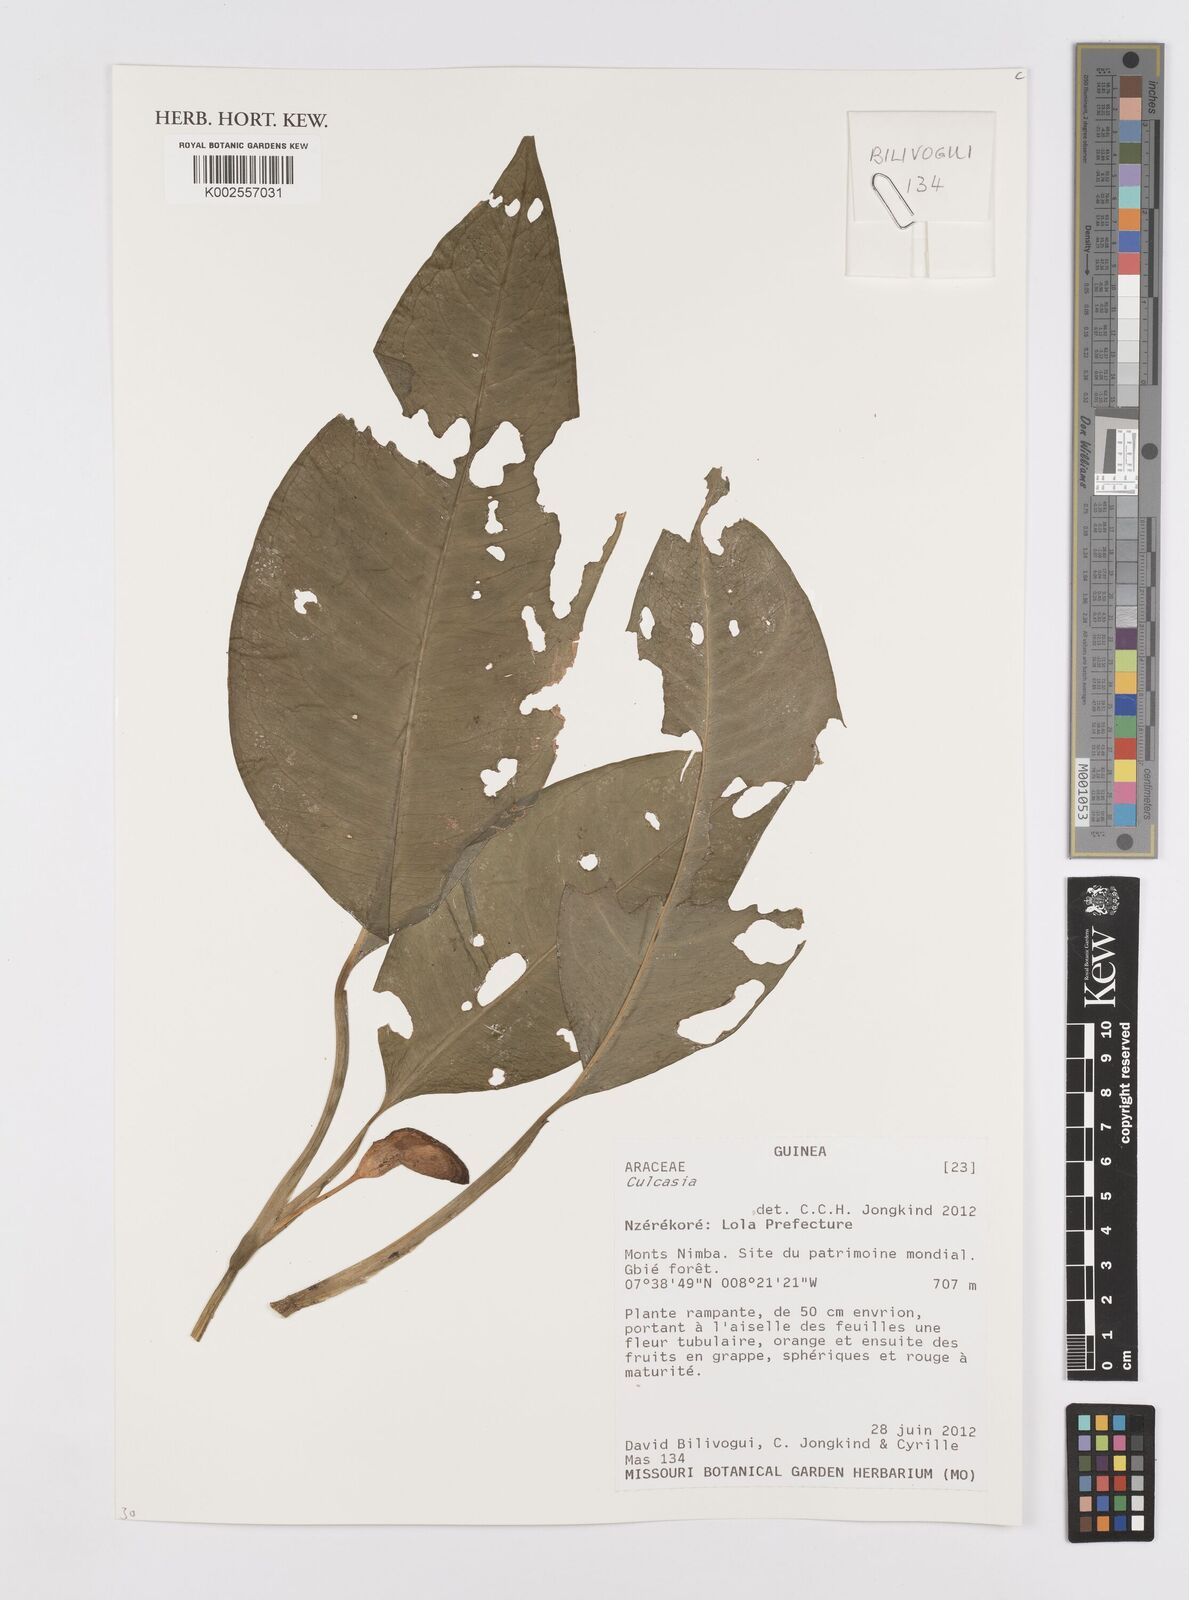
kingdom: Plantae
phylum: Tracheophyta
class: Liliopsida
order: Alismatales
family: Araceae
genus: Culcasia
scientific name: Culcasia
